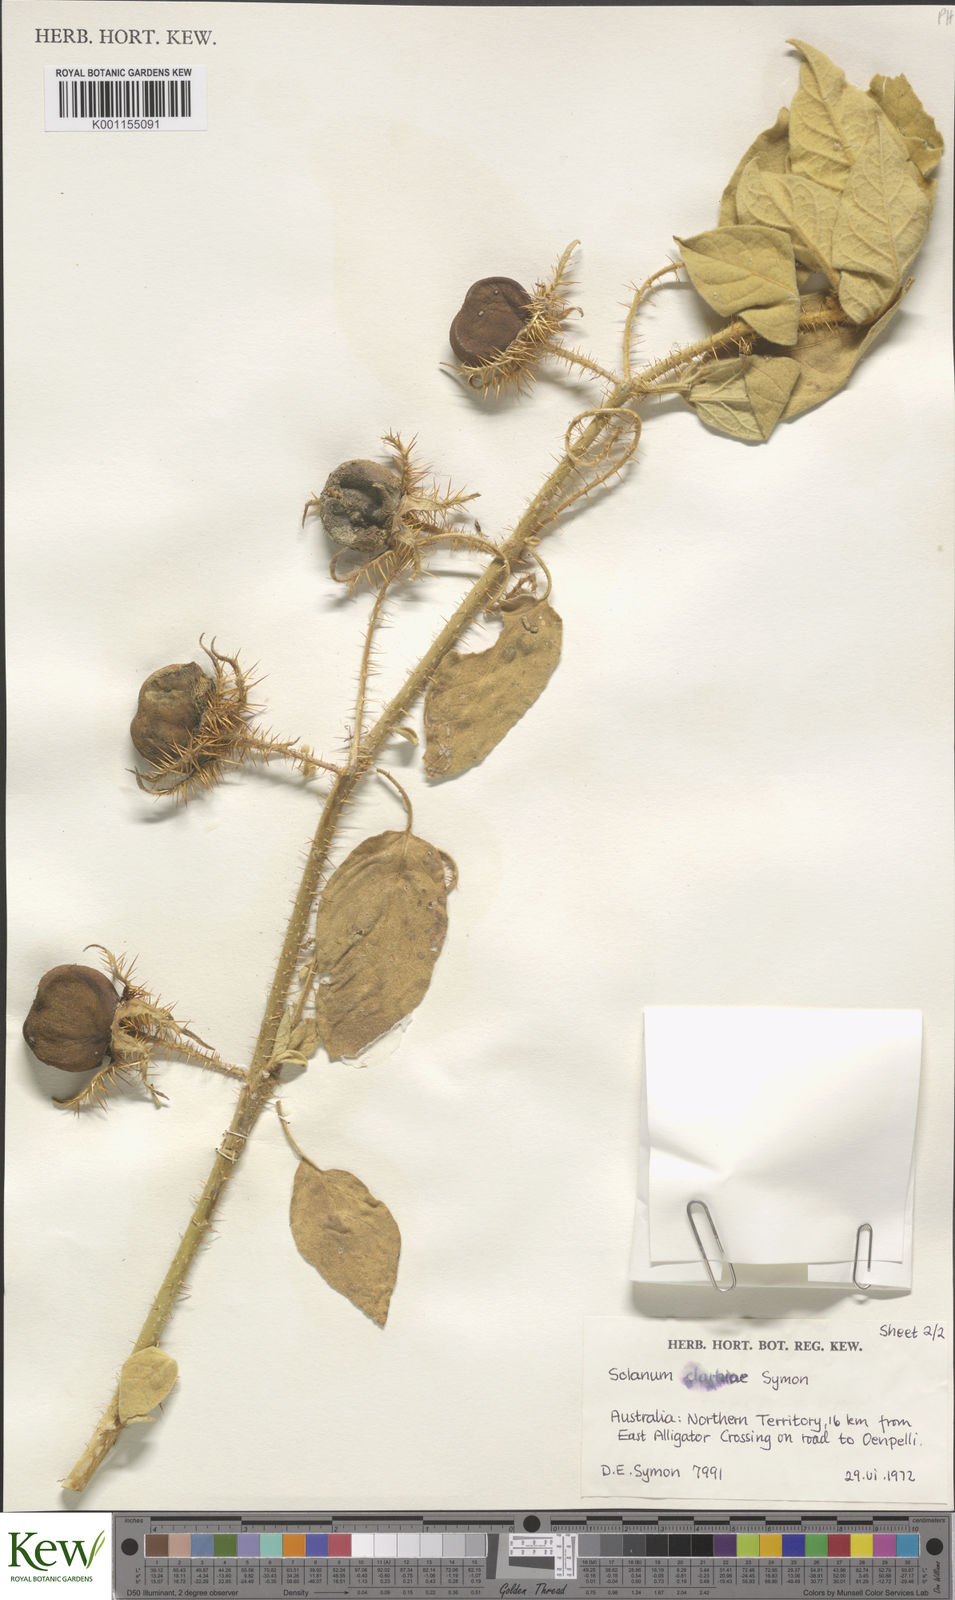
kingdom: Plantae
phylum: Tracheophyta
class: Magnoliopsida
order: Solanales
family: Solanaceae
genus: Solanum
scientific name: Solanum clarkiae
